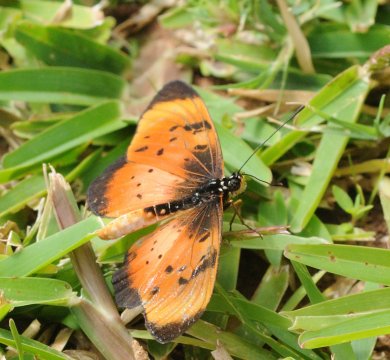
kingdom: Animalia
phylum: Arthropoda
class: Insecta
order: Lepidoptera
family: Nymphalidae
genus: Acraea
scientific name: Acraea natalica
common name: Natal Acraea
